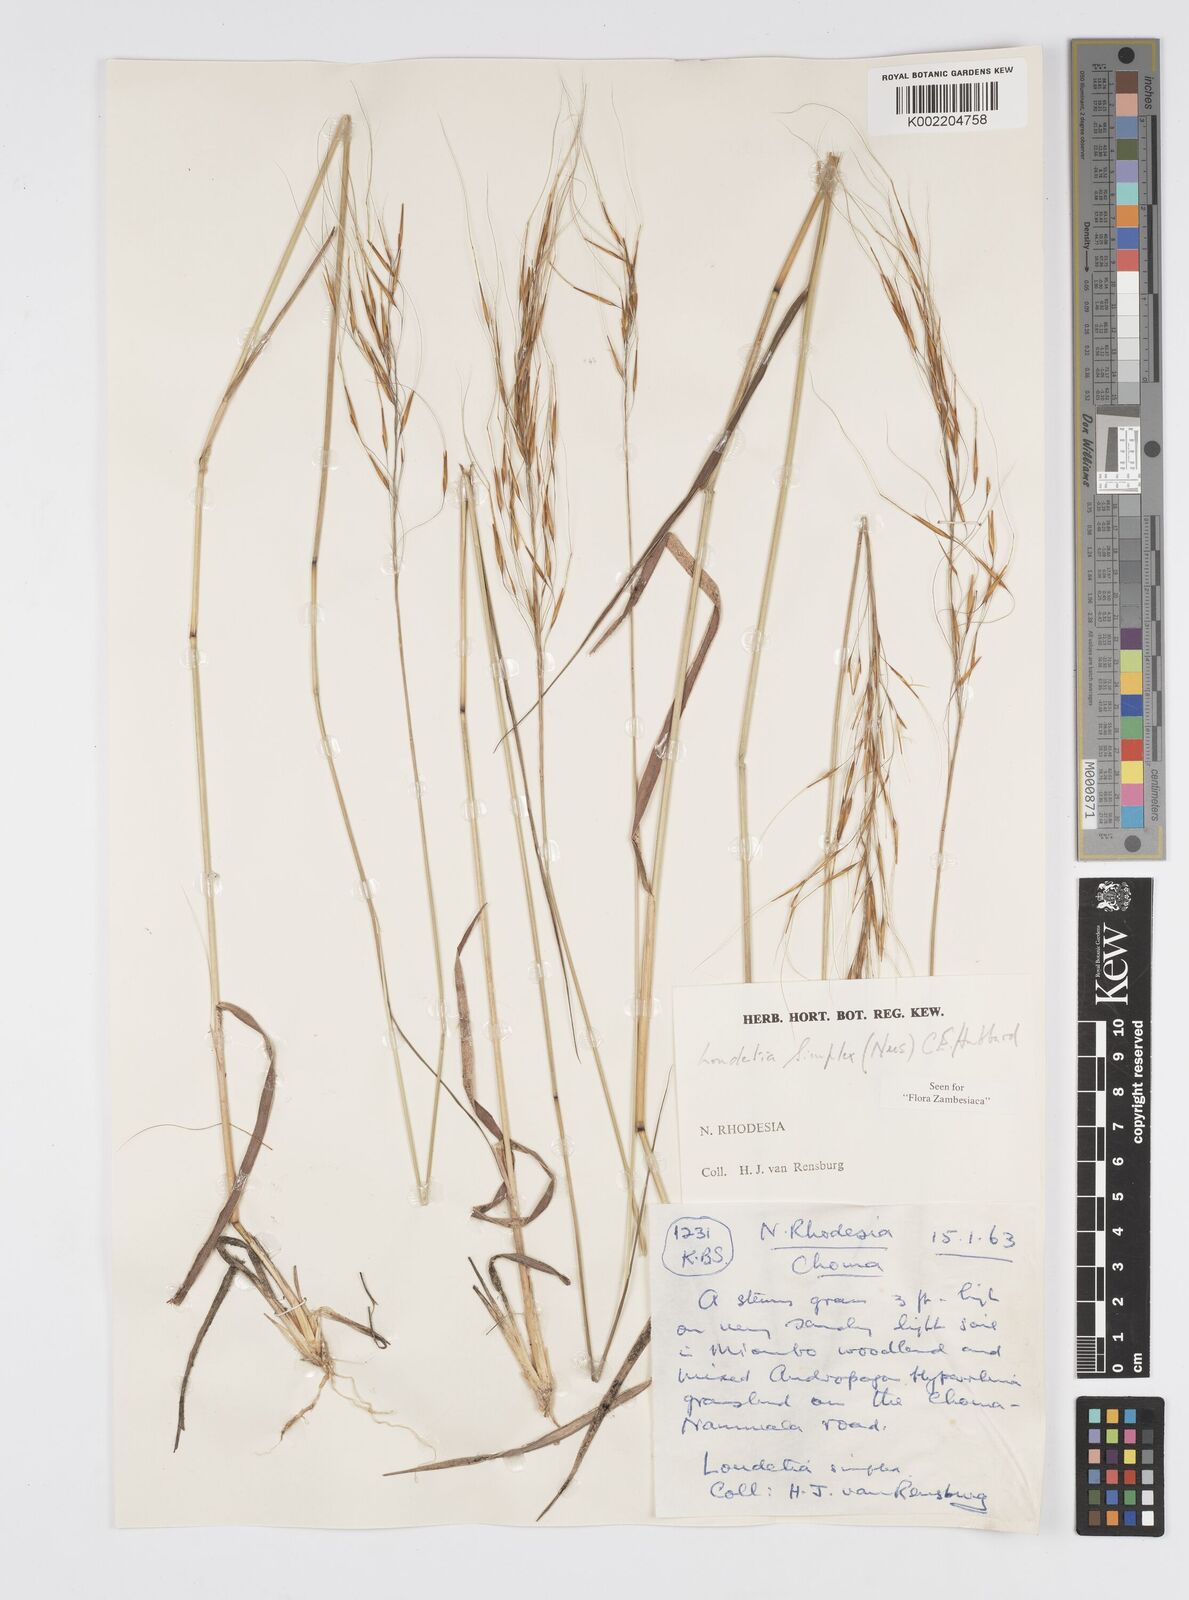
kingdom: Plantae
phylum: Tracheophyta
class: Liliopsida
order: Poales
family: Poaceae
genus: Loudetia
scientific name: Loudetia simplex
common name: Common russet grass
